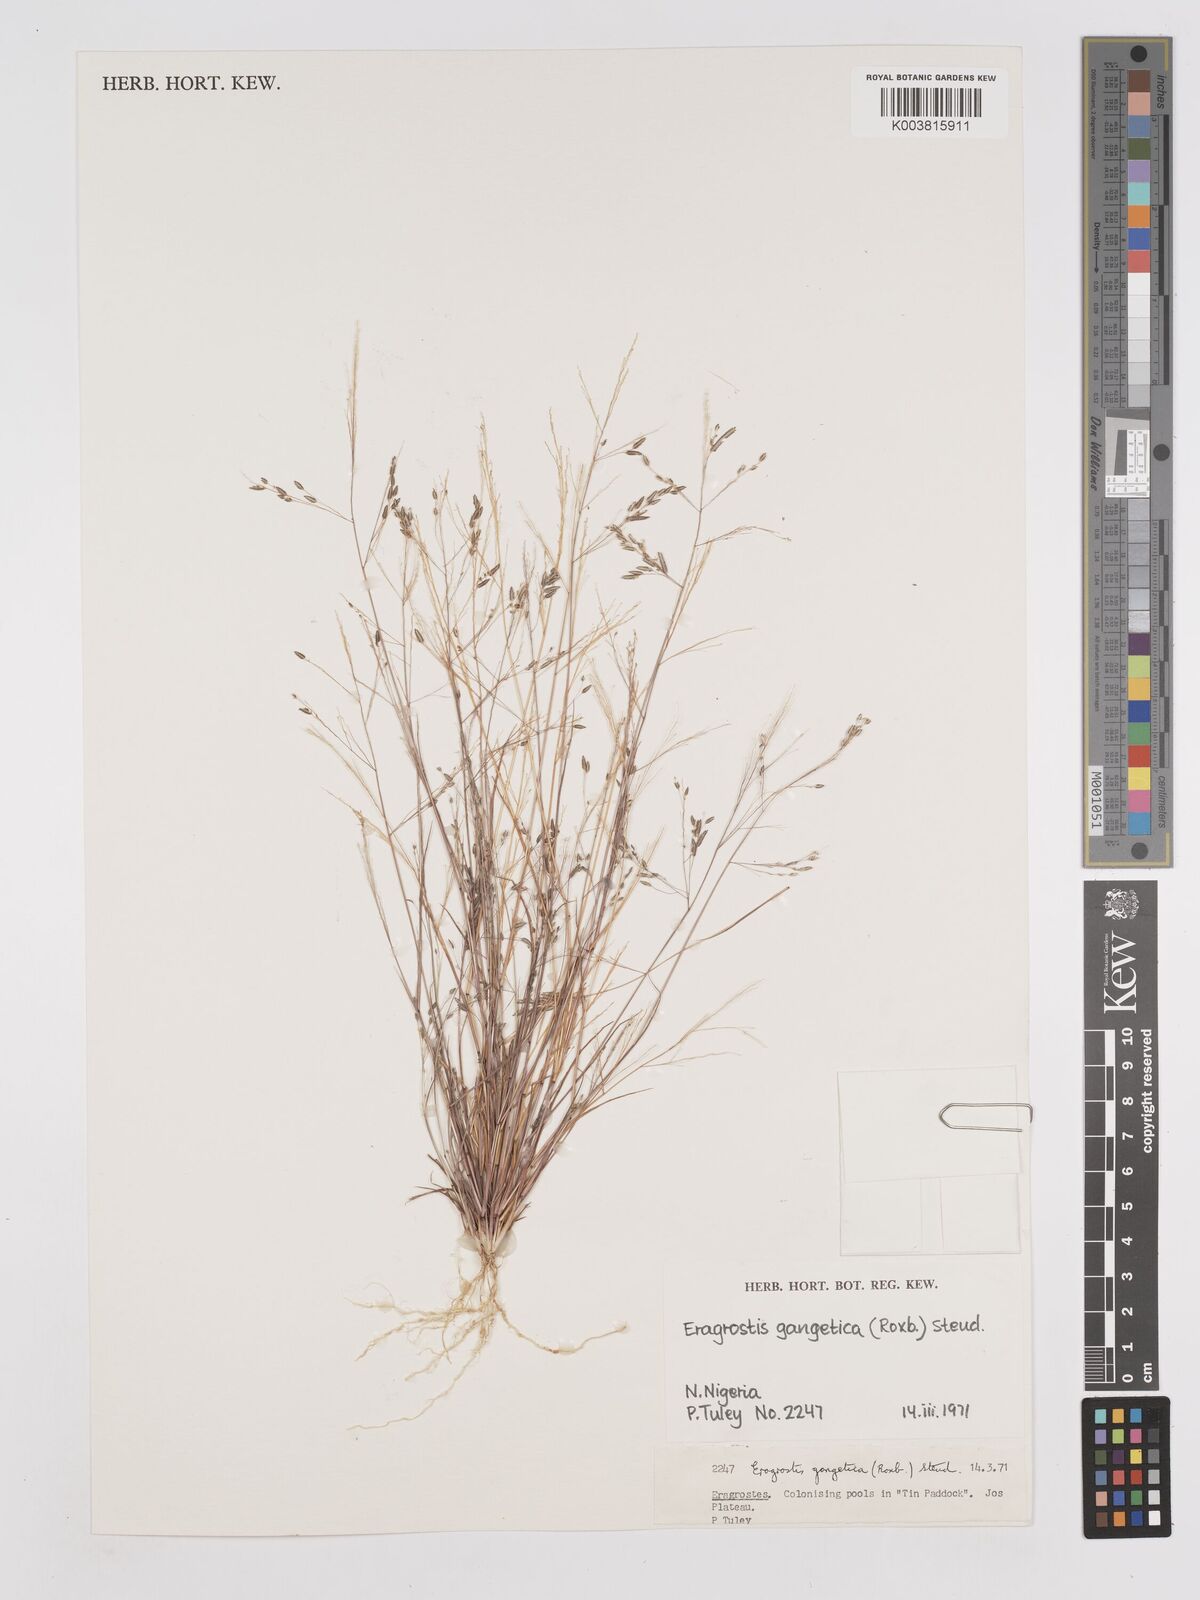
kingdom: Plantae
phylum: Tracheophyta
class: Liliopsida
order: Poales
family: Poaceae
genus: Eragrostis
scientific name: Eragrostis gangetica
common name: Slimflower lovegrass
